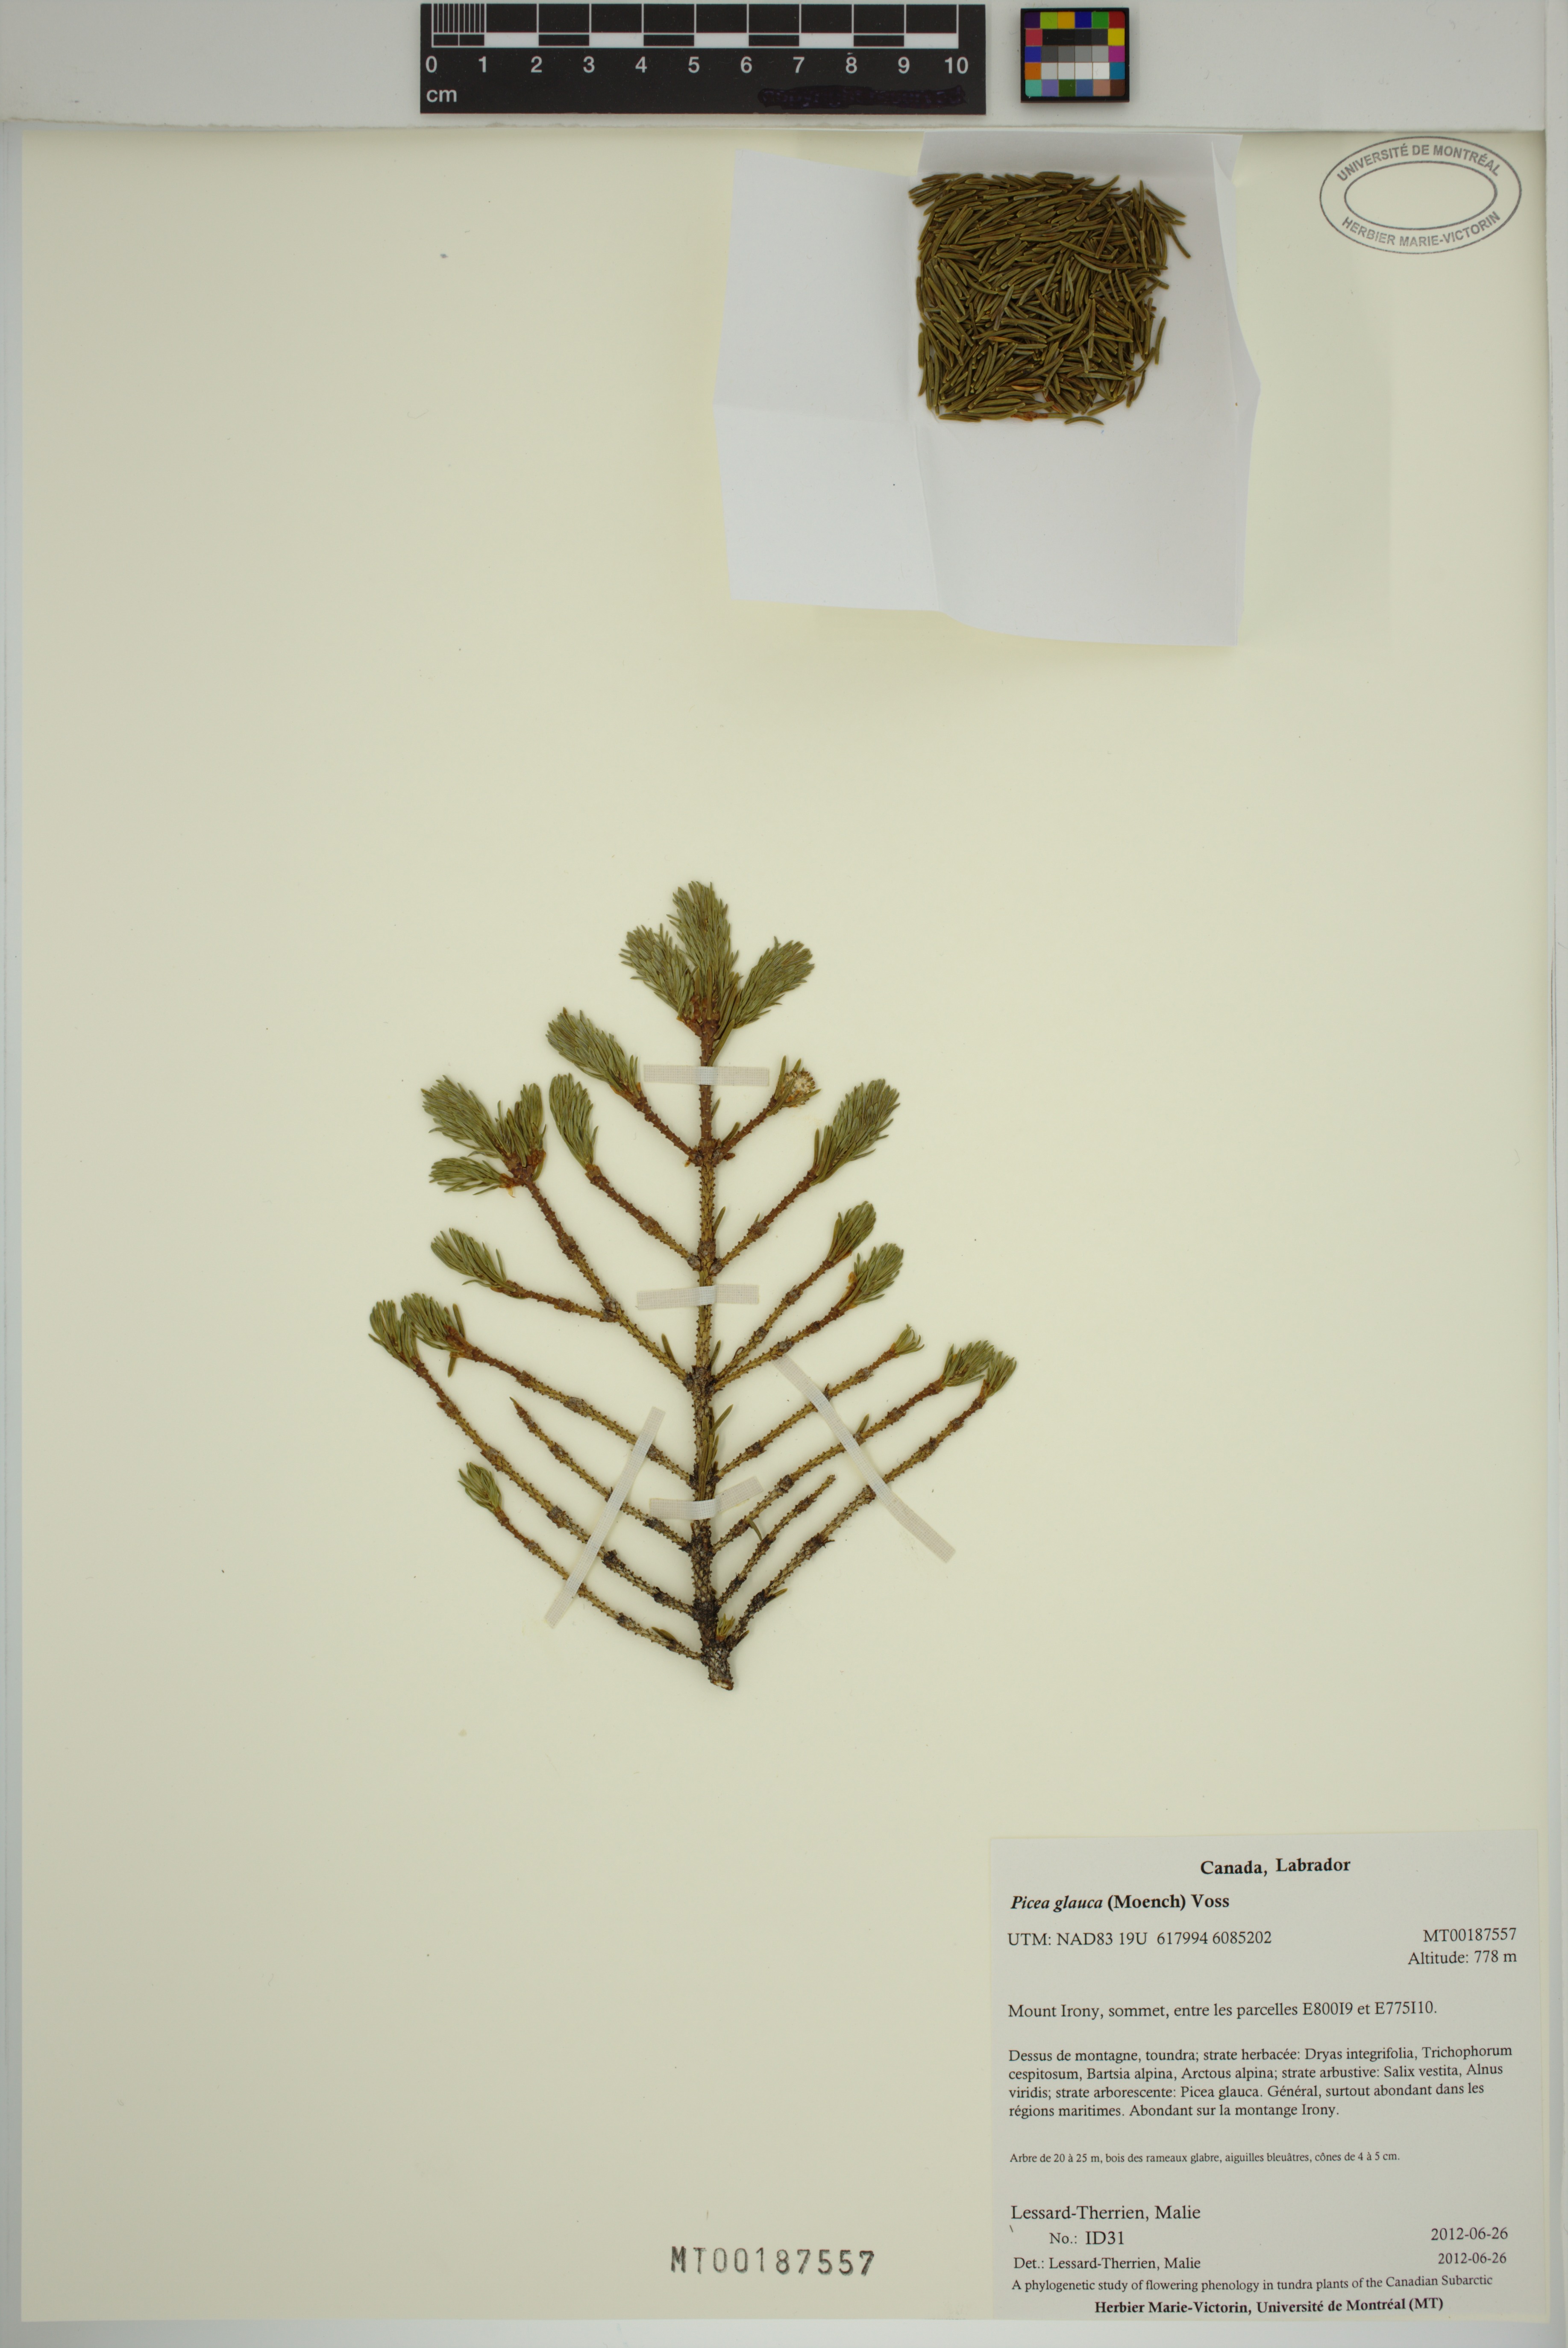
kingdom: Plantae
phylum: Tracheophyta
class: Pinopsida
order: Pinales
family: Pinaceae
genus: Picea
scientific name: Picea glauca
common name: White spruce
